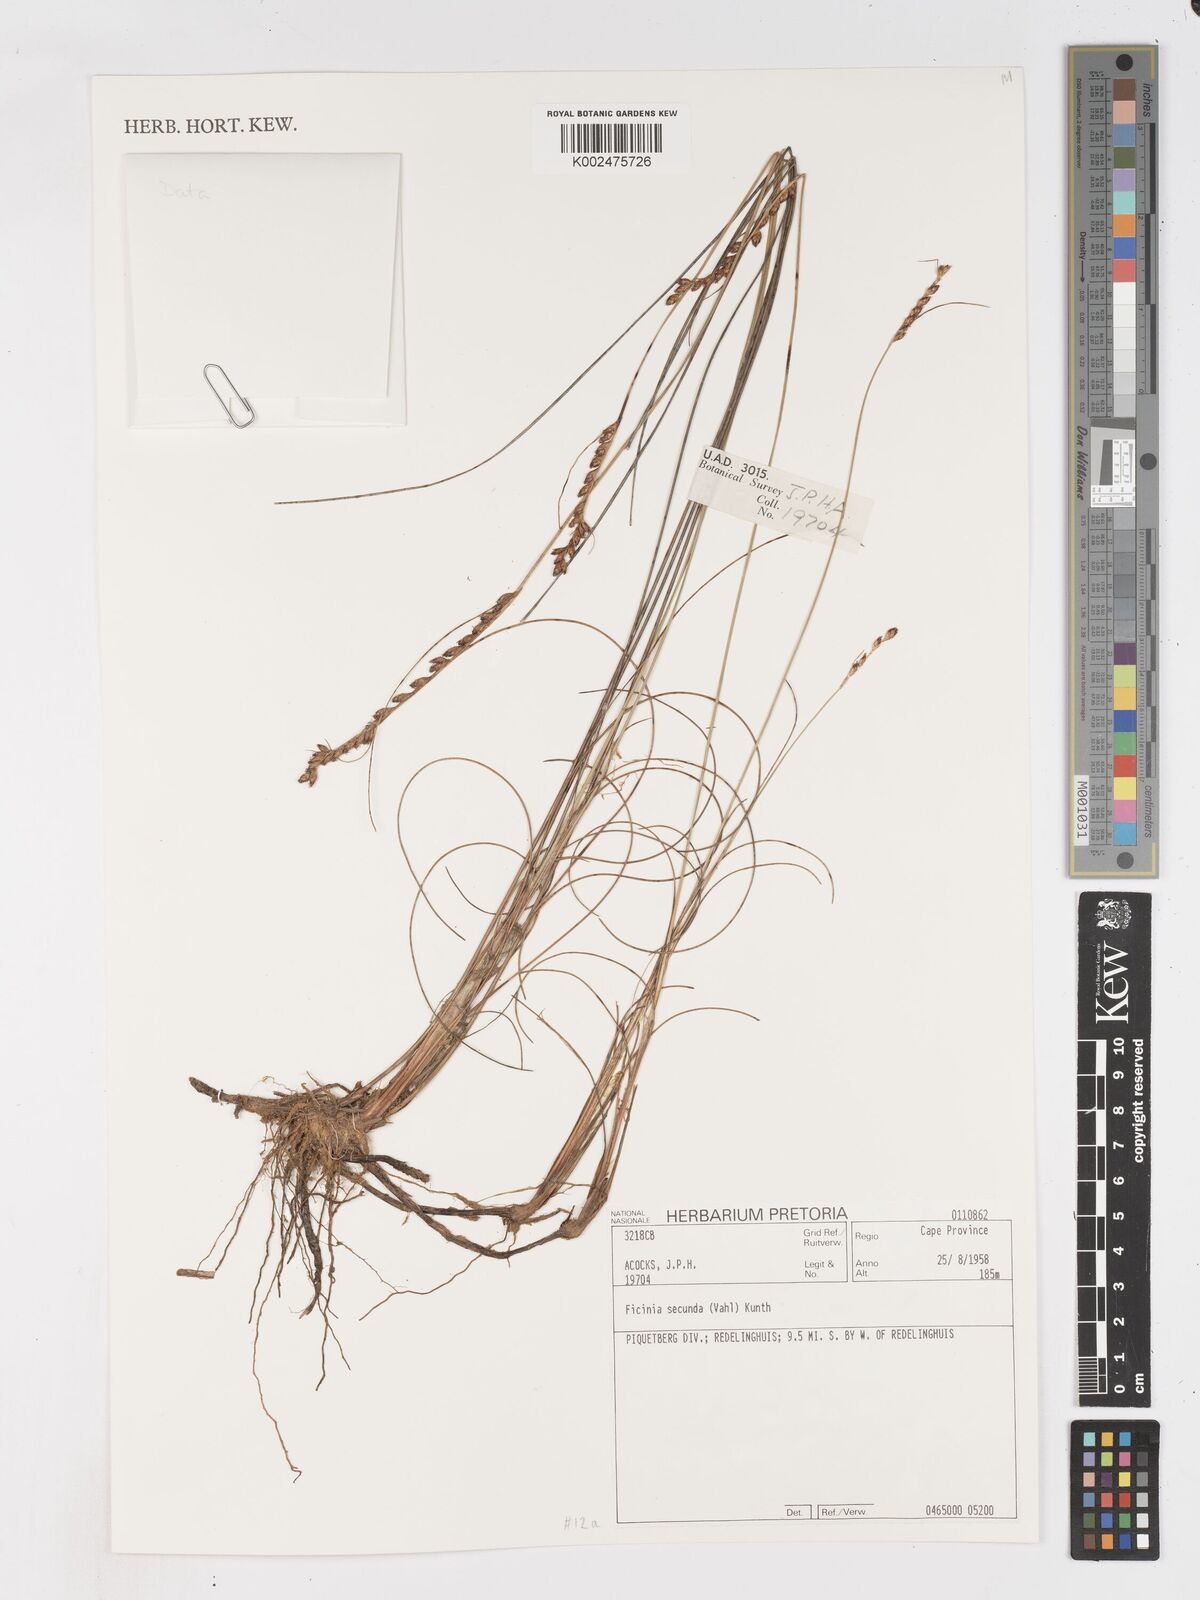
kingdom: Plantae
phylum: Tracheophyta
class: Liliopsida
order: Poales
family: Cyperaceae
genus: Ficinia
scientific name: Ficinia secunda
